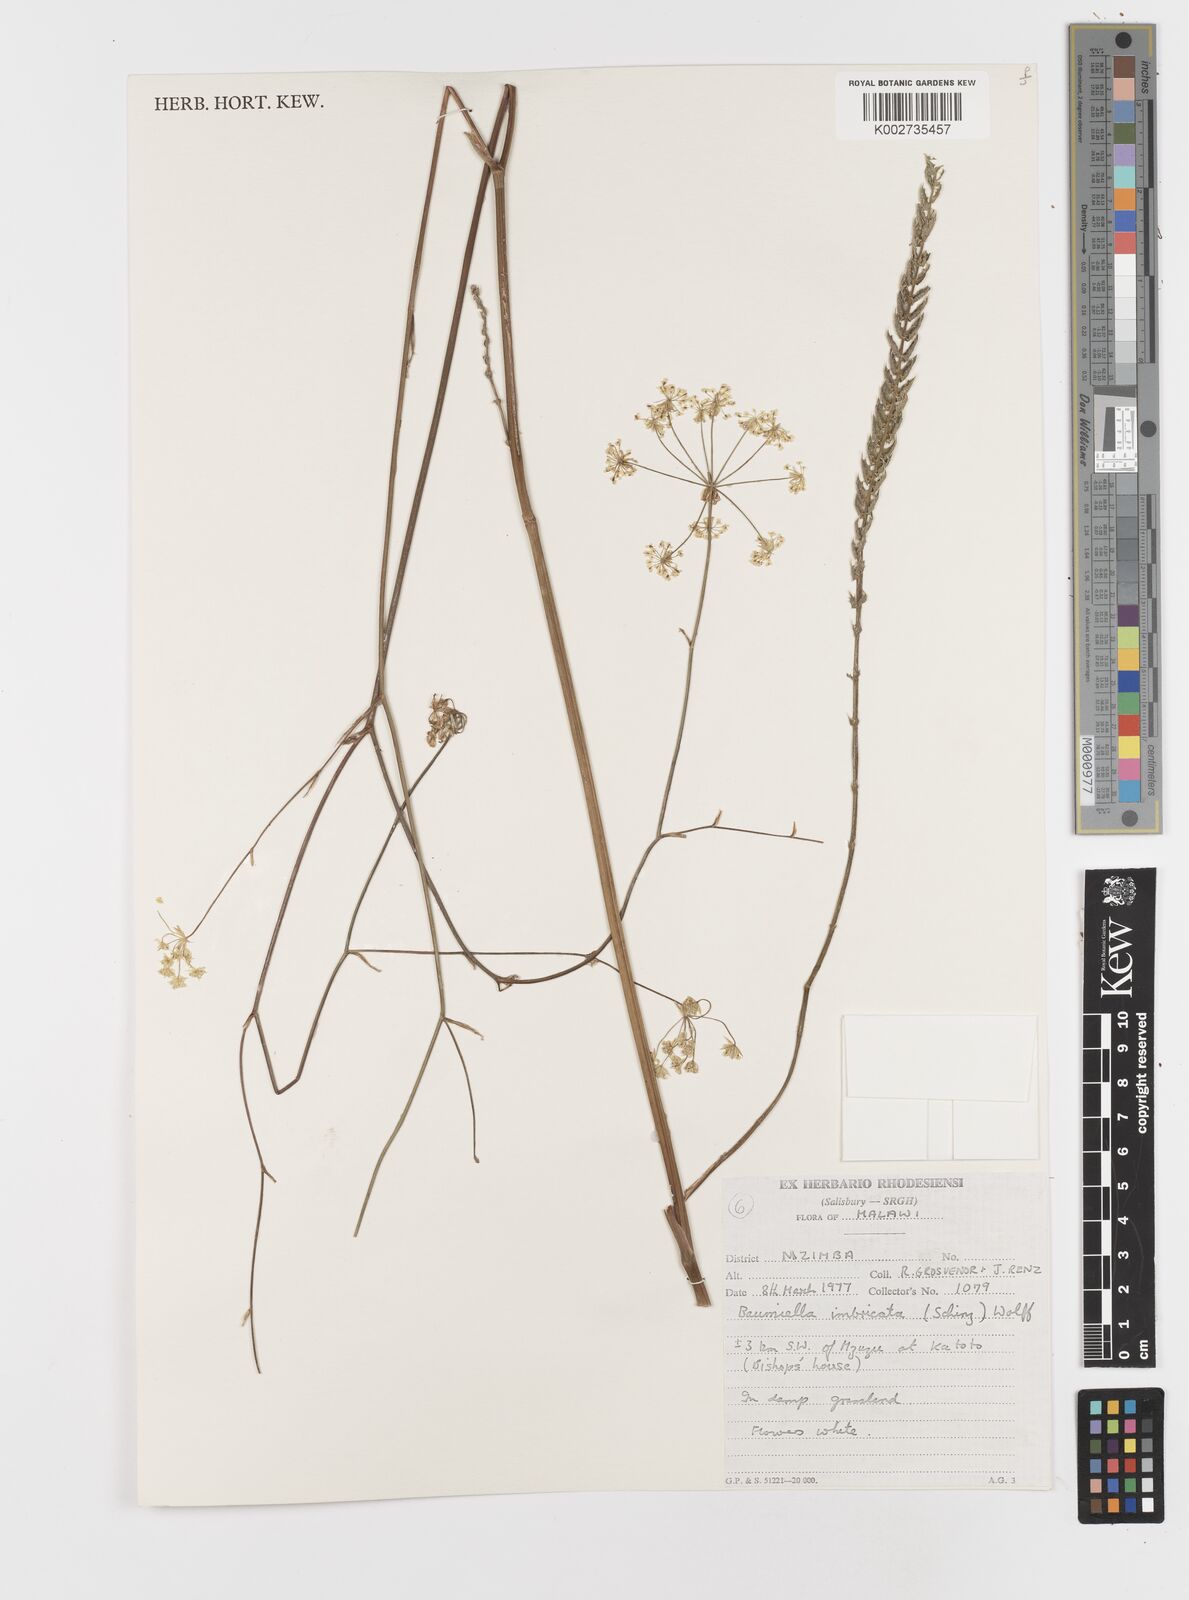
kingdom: Plantae
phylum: Tracheophyta
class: Magnoliopsida
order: Apiales
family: Apiaceae
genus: Berula
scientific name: Berula imbricata
